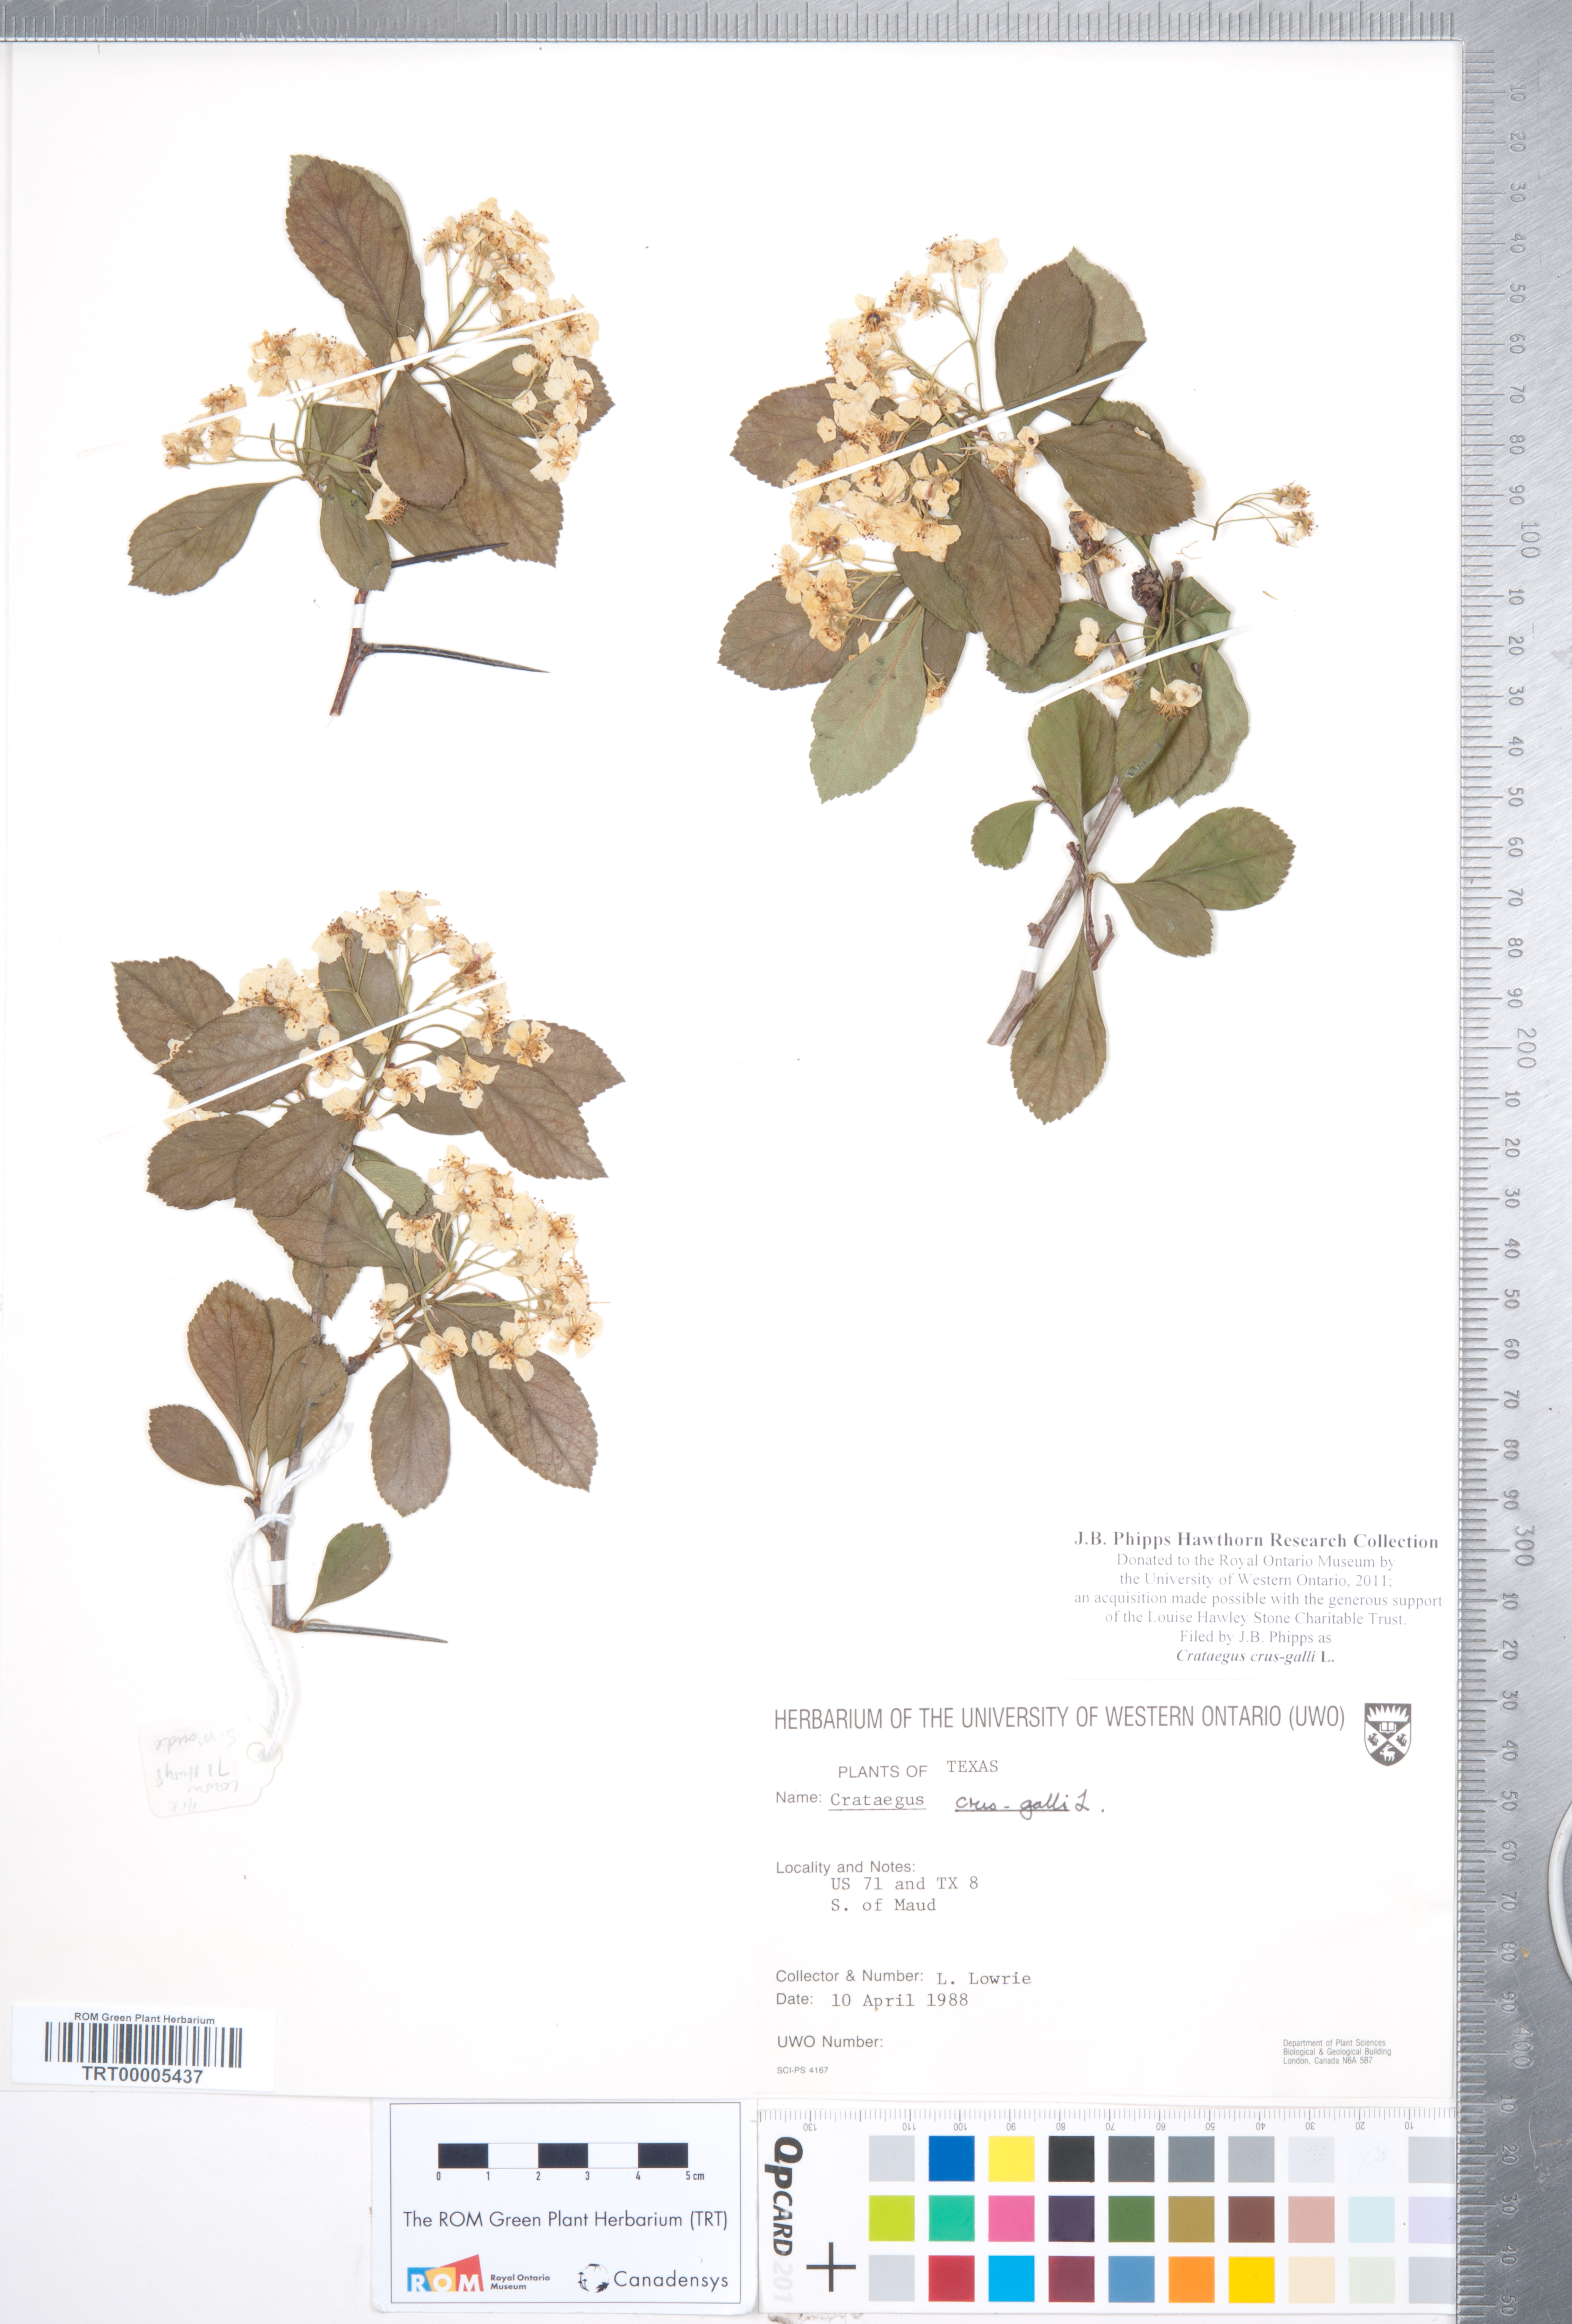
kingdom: Plantae
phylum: Tracheophyta
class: Magnoliopsida
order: Rosales
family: Rosaceae
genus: Crataegus
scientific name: Crataegus crus-galli
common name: Cockspurthorn
